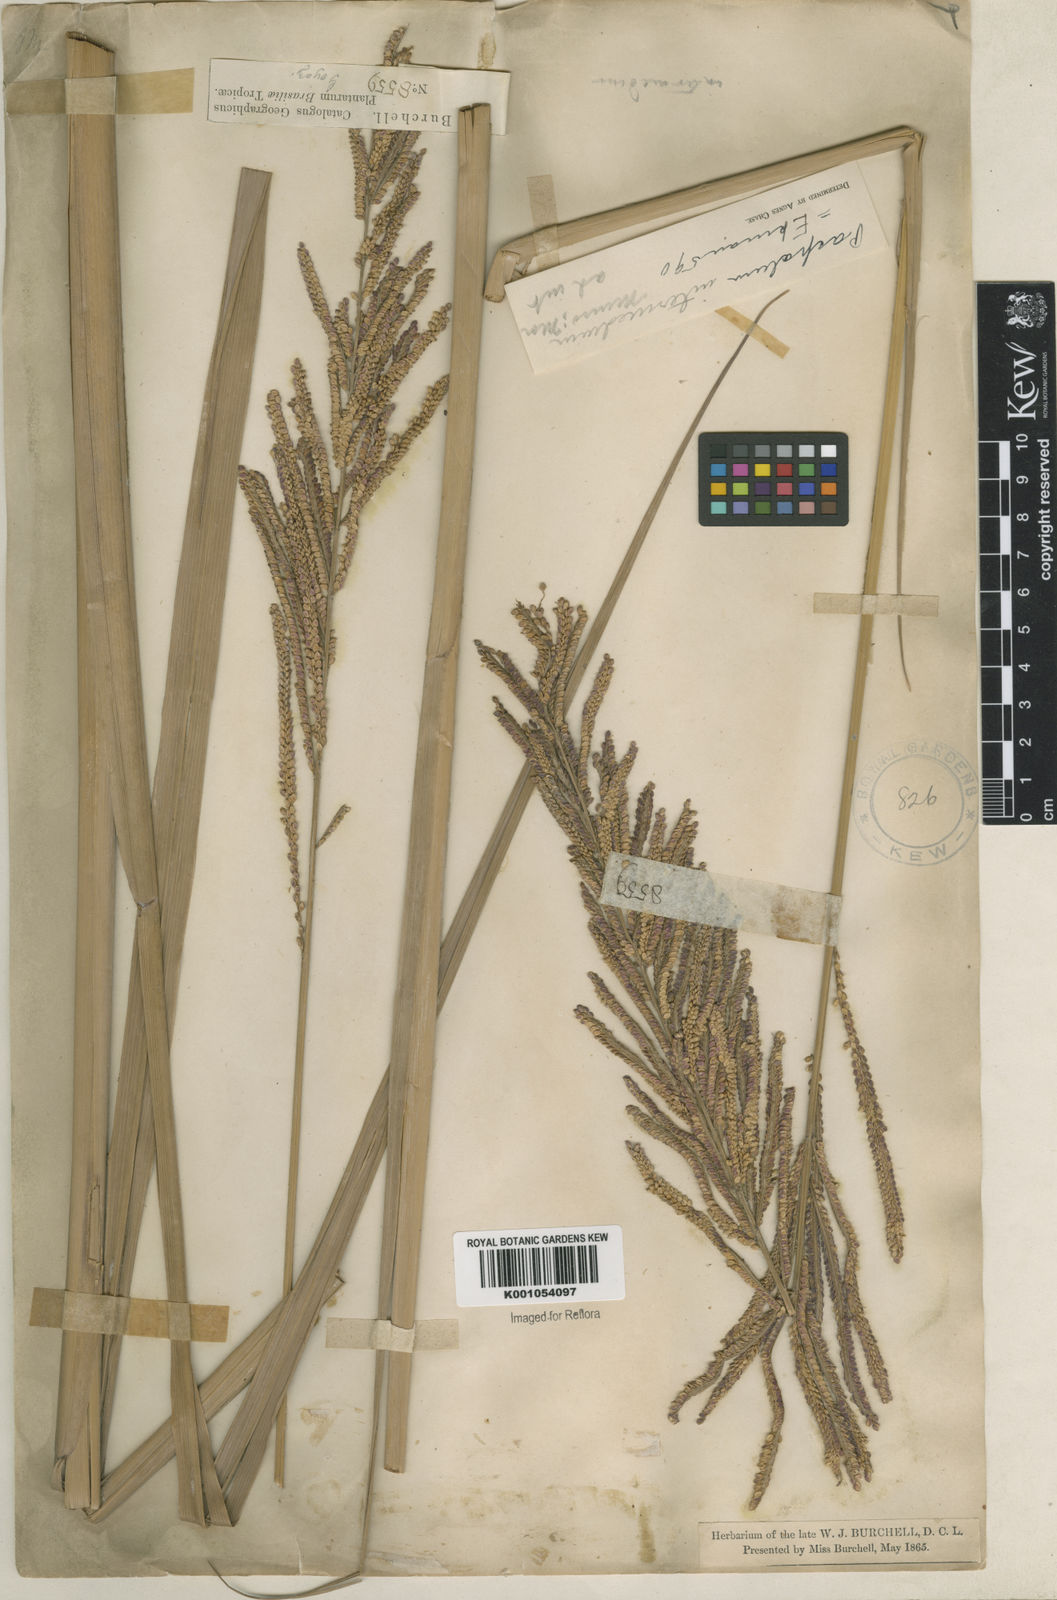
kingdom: Plantae
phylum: Tracheophyta
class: Liliopsida
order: Poales
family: Poaceae
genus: Paspalum
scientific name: Paspalum intermedium
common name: Intermediate paspalum
